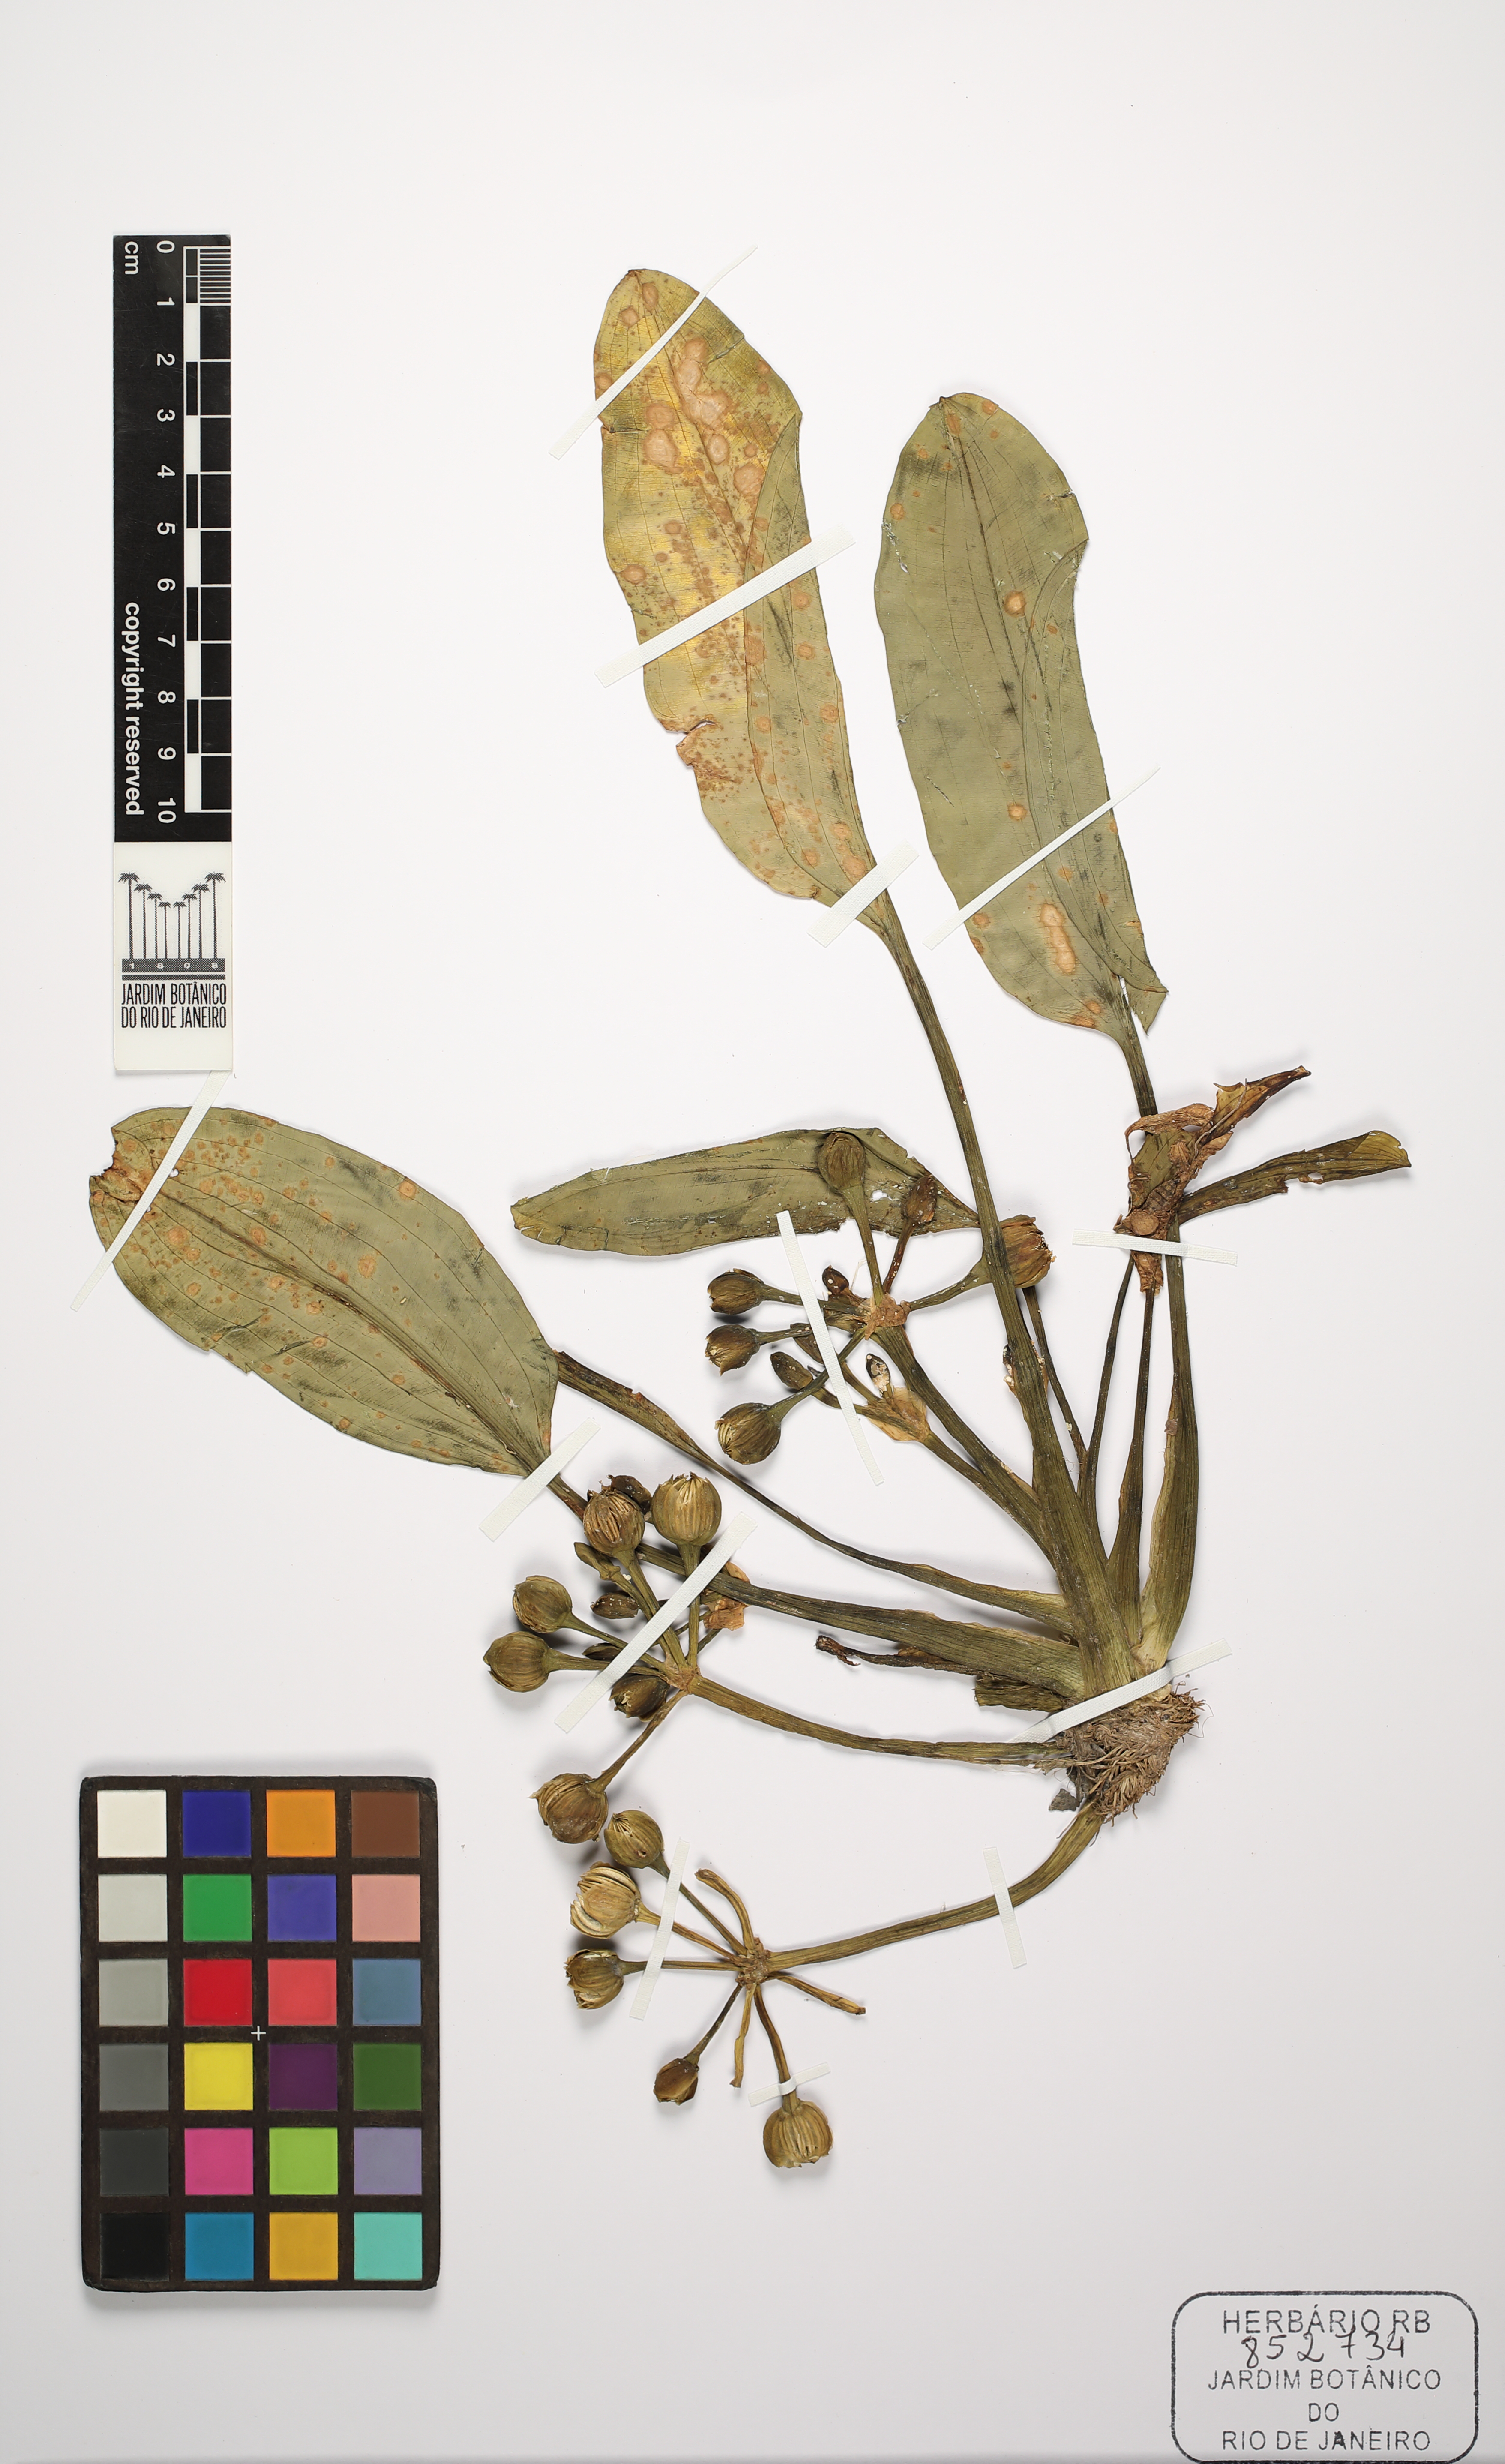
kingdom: Plantae
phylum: Tracheophyta
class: Liliopsida
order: Alismatales
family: Alismataceae
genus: Limnocharis
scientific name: Limnocharis laforestii
